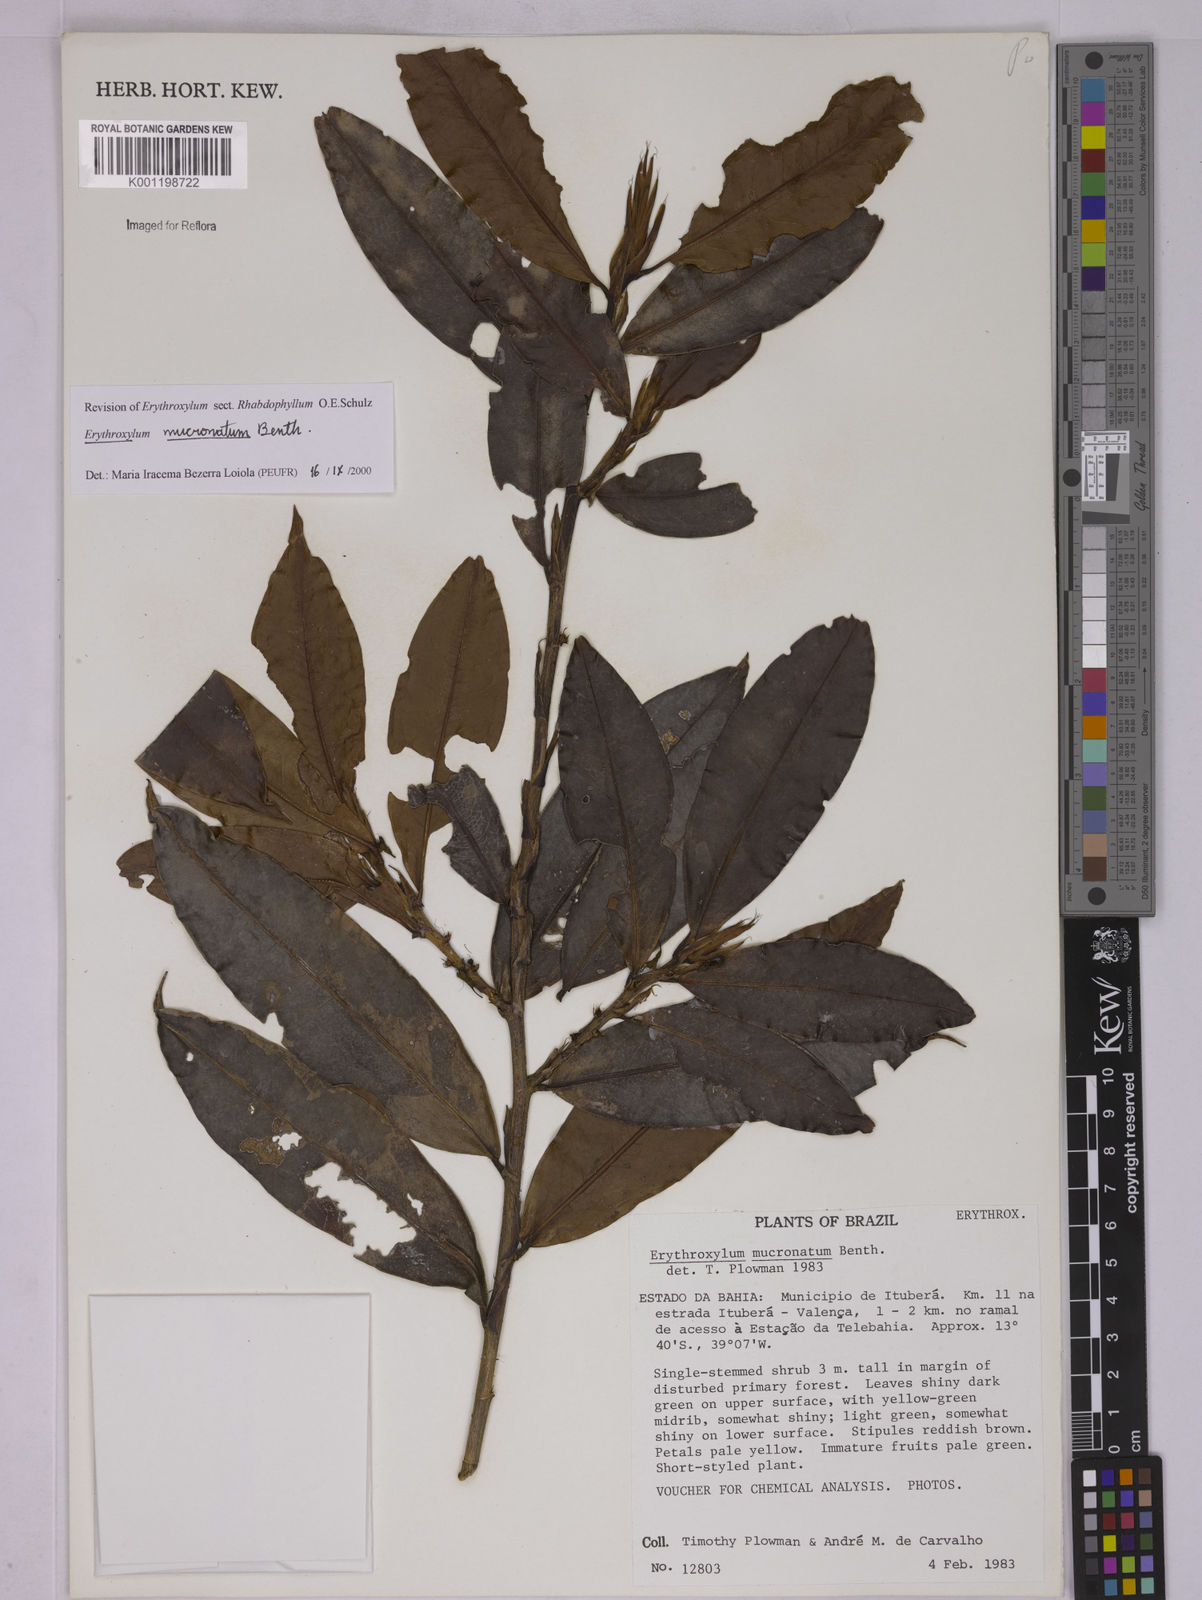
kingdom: Plantae
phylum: Tracheophyta
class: Magnoliopsida
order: Malpighiales
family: Erythroxylaceae
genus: Erythroxylum
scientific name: Erythroxylum mucronatum
